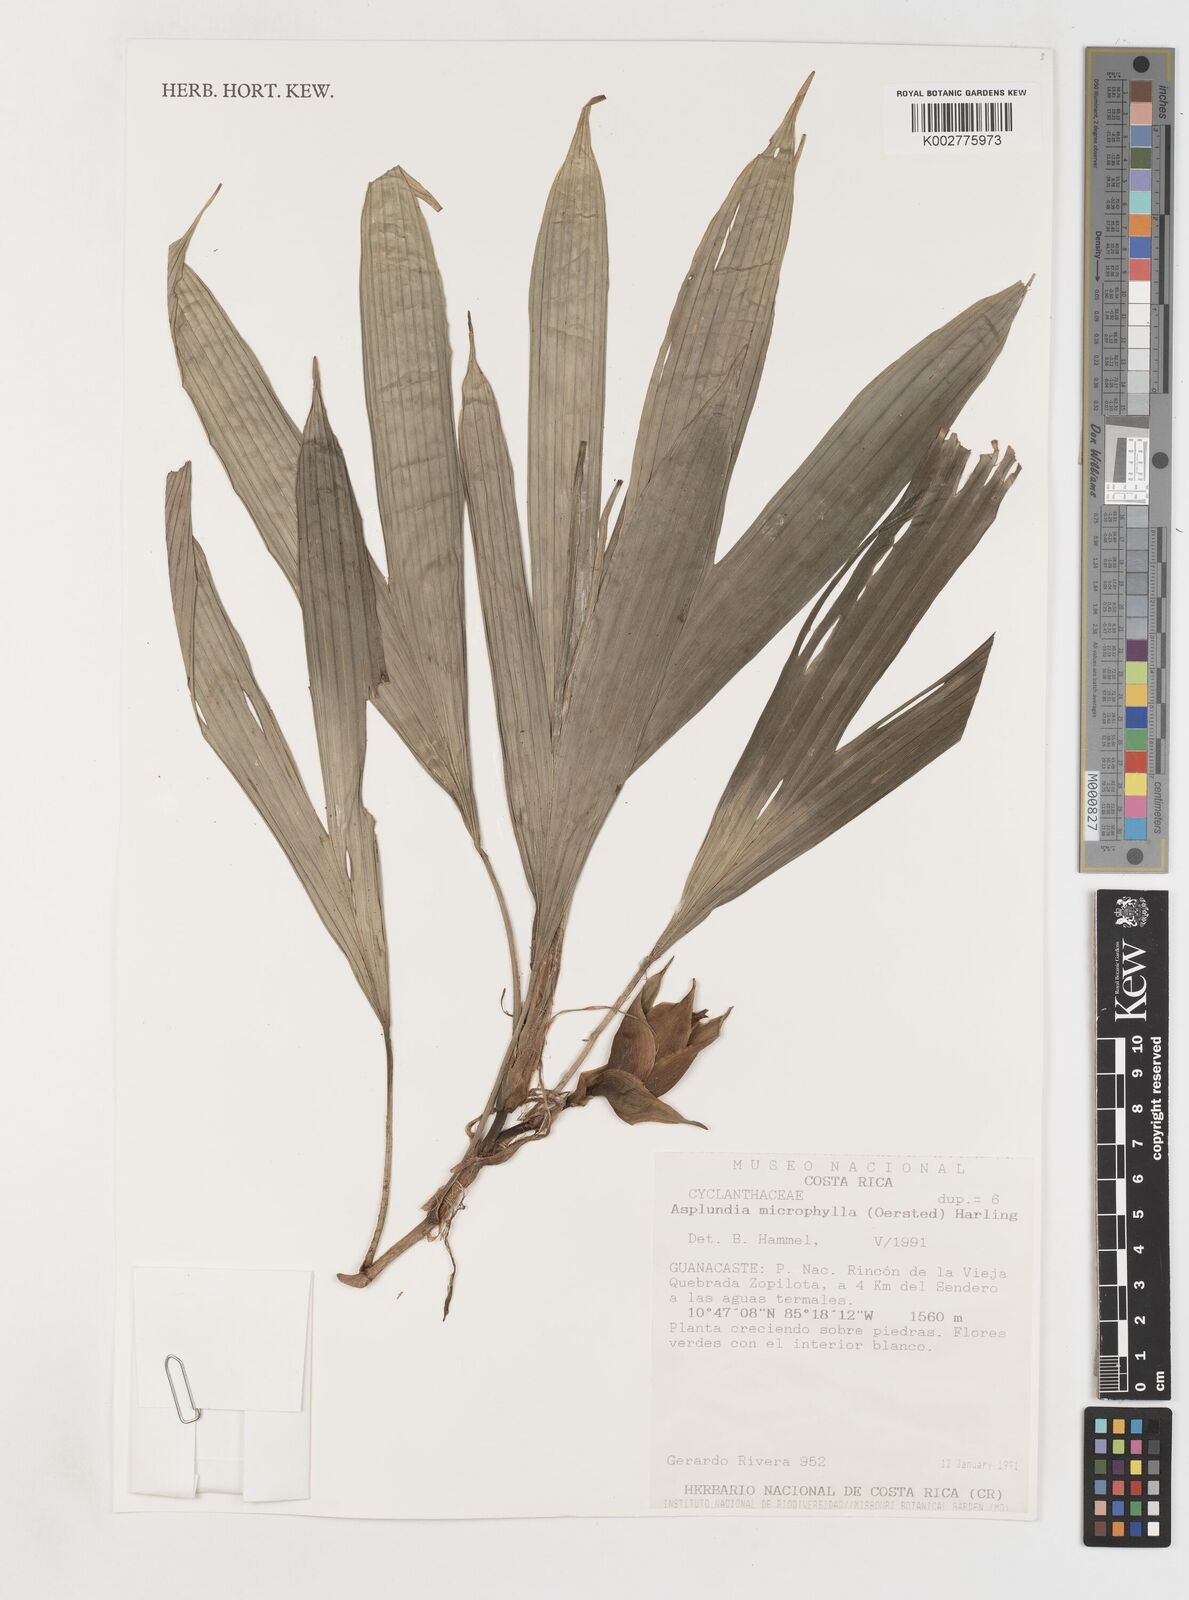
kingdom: Plantae
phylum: Tracheophyta
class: Liliopsida
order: Pandanales
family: Cyclanthaceae
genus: Asplundia
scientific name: Asplundia microphylla
